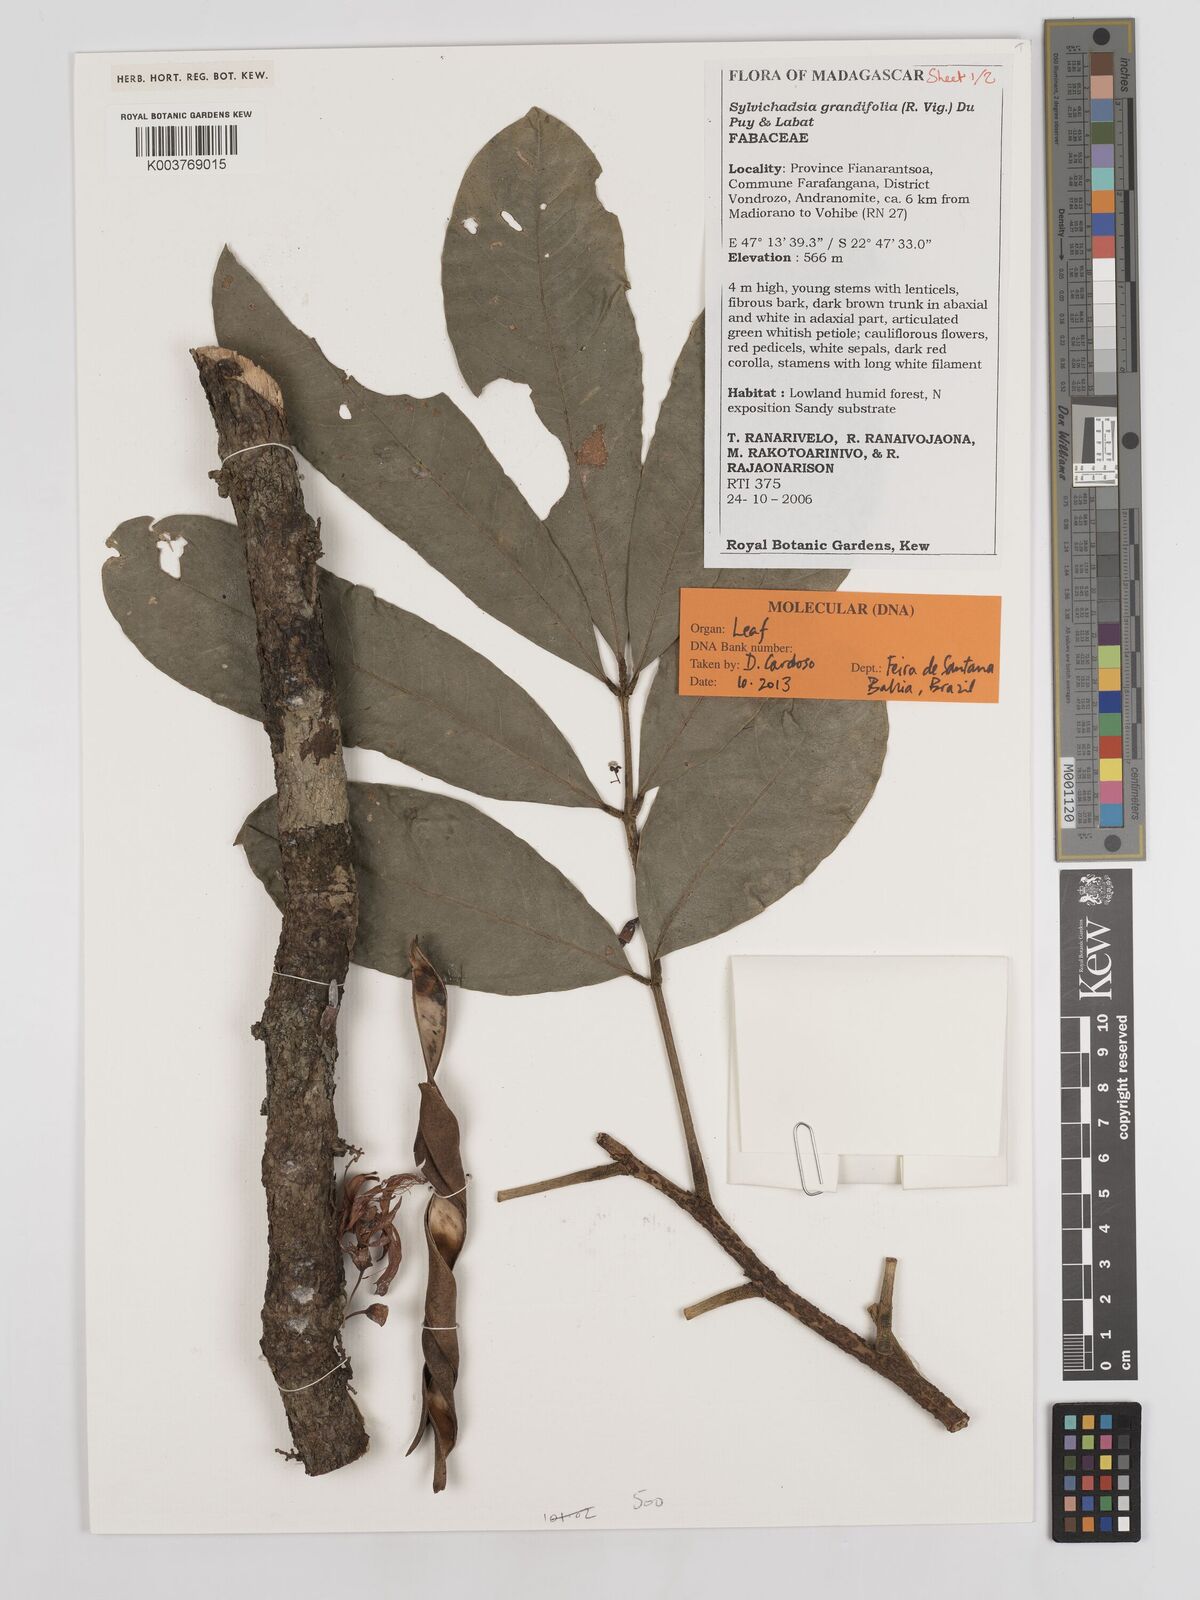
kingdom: Plantae
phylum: Tracheophyta
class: Magnoliopsida
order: Fabales
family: Fabaceae
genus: Sylvichadsia
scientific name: Sylvichadsia grandifolia
